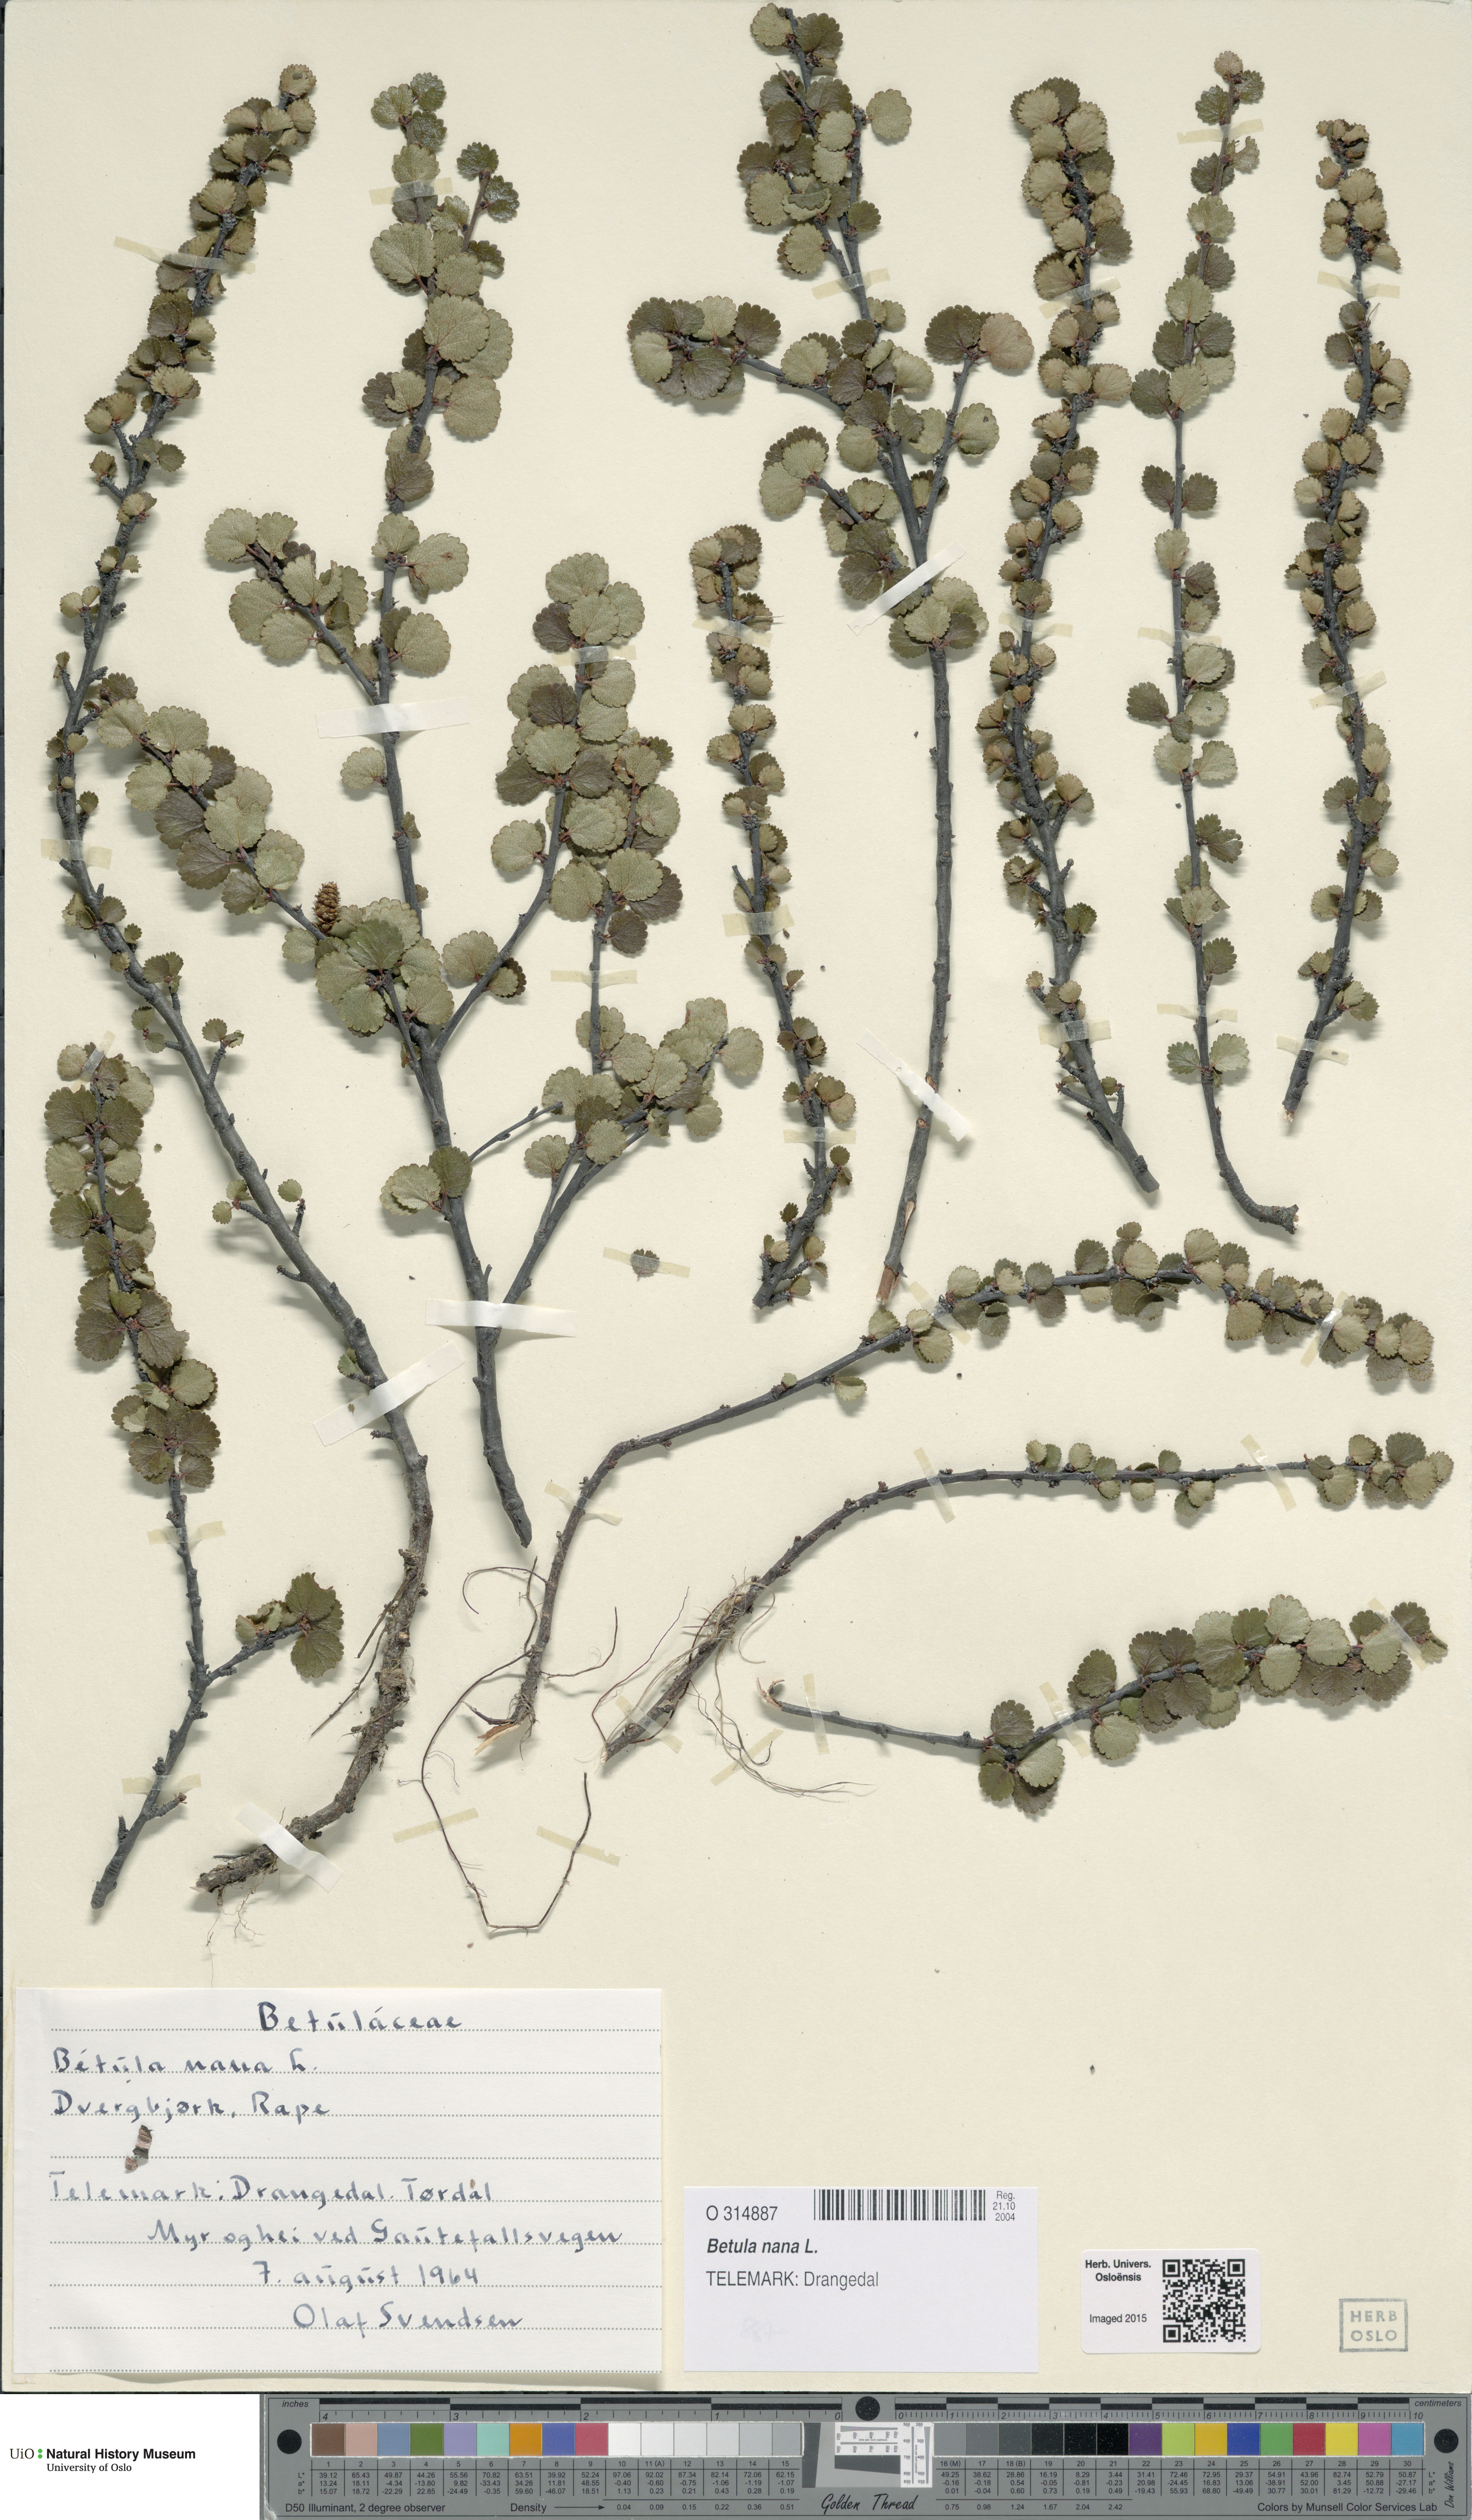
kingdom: Plantae
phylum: Tracheophyta
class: Magnoliopsida
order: Fagales
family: Betulaceae
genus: Betula
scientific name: Betula nana
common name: Arctic dwarf birch
